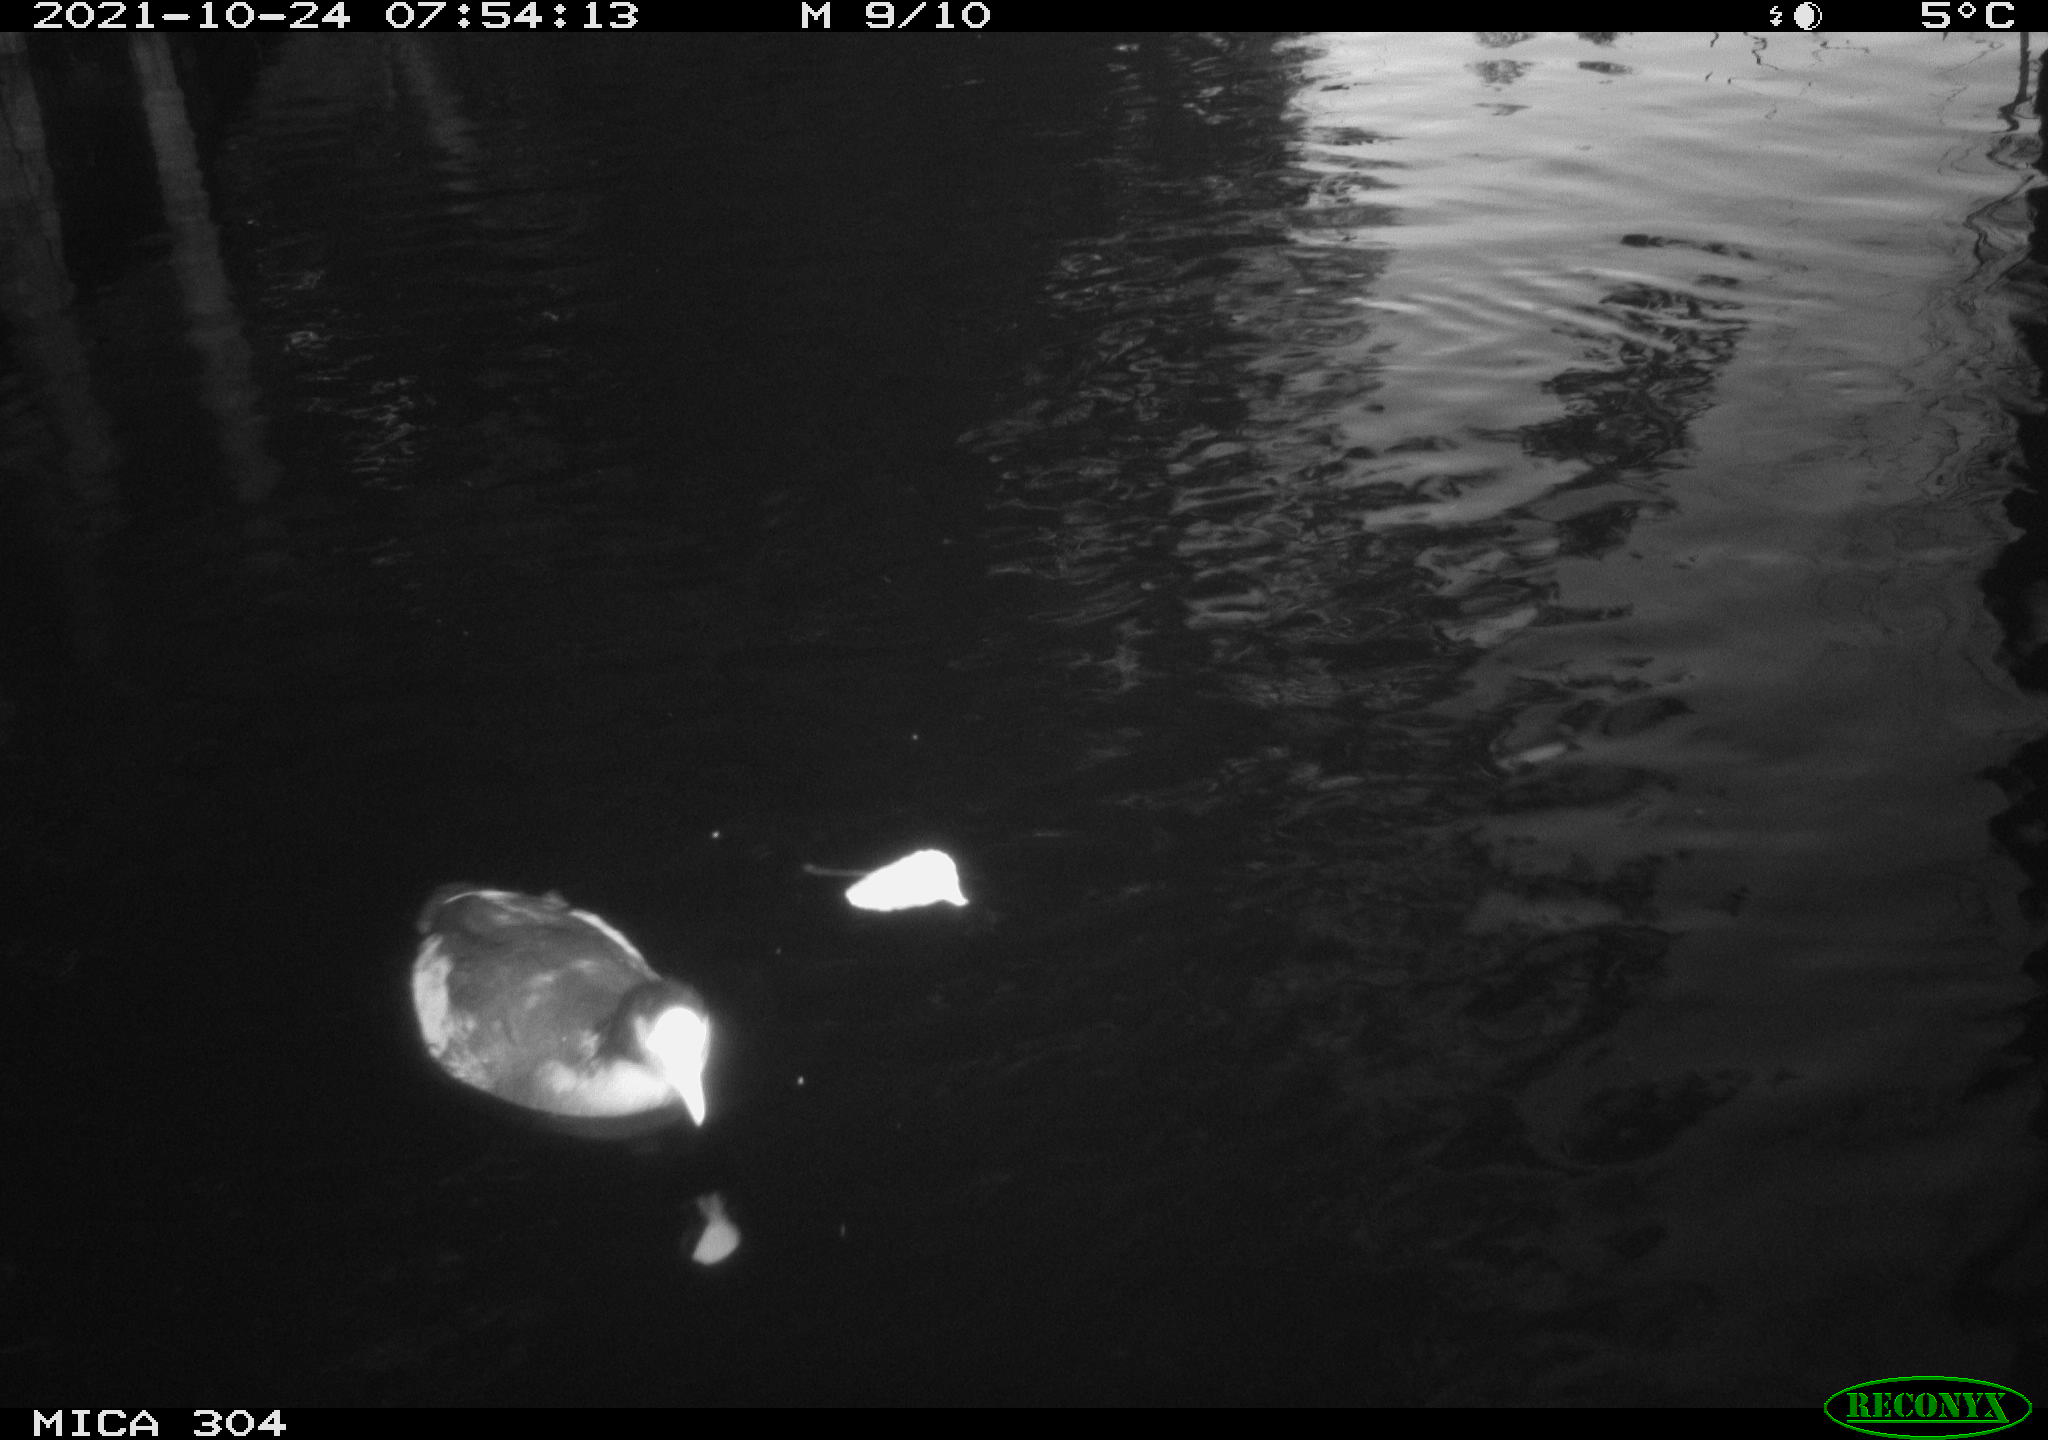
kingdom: Animalia
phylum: Chordata
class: Aves
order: Gruiformes
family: Rallidae
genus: Fulica
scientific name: Fulica atra
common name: Eurasian coot
